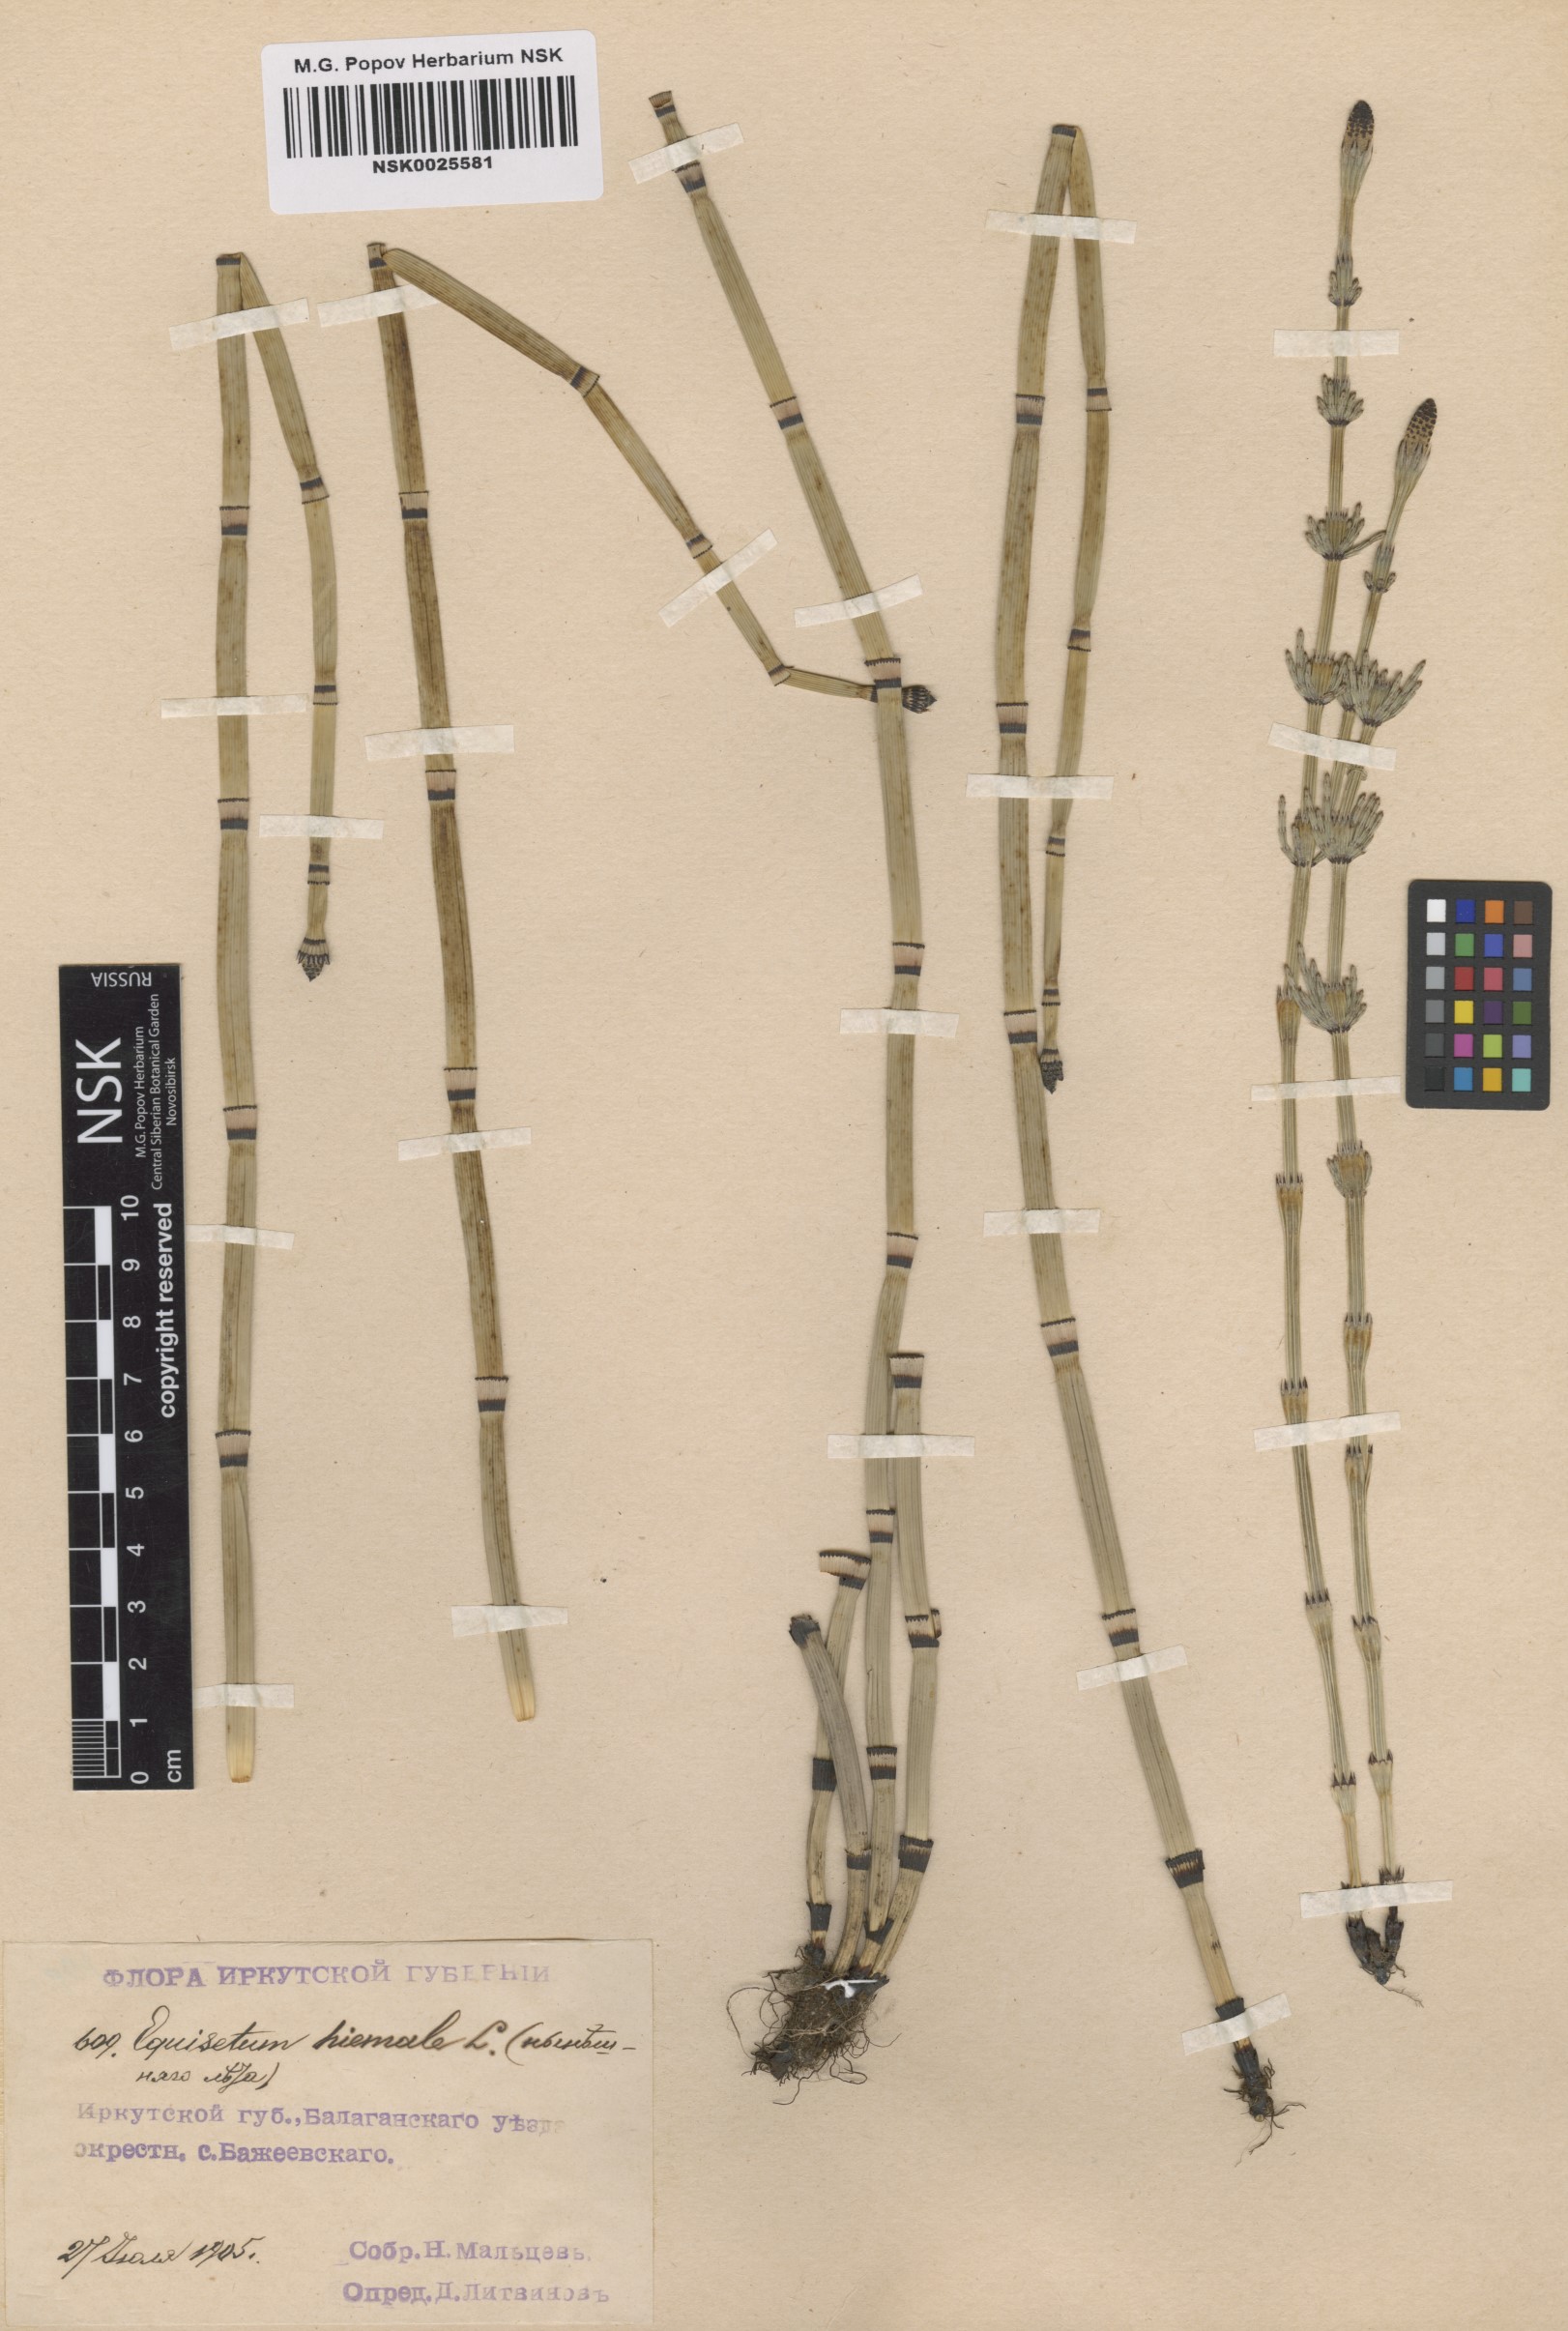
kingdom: Plantae
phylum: Tracheophyta
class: Polypodiopsida
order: Equisetales
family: Equisetaceae
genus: Equisetum
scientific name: Equisetum hyemale
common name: Rough horsetail
